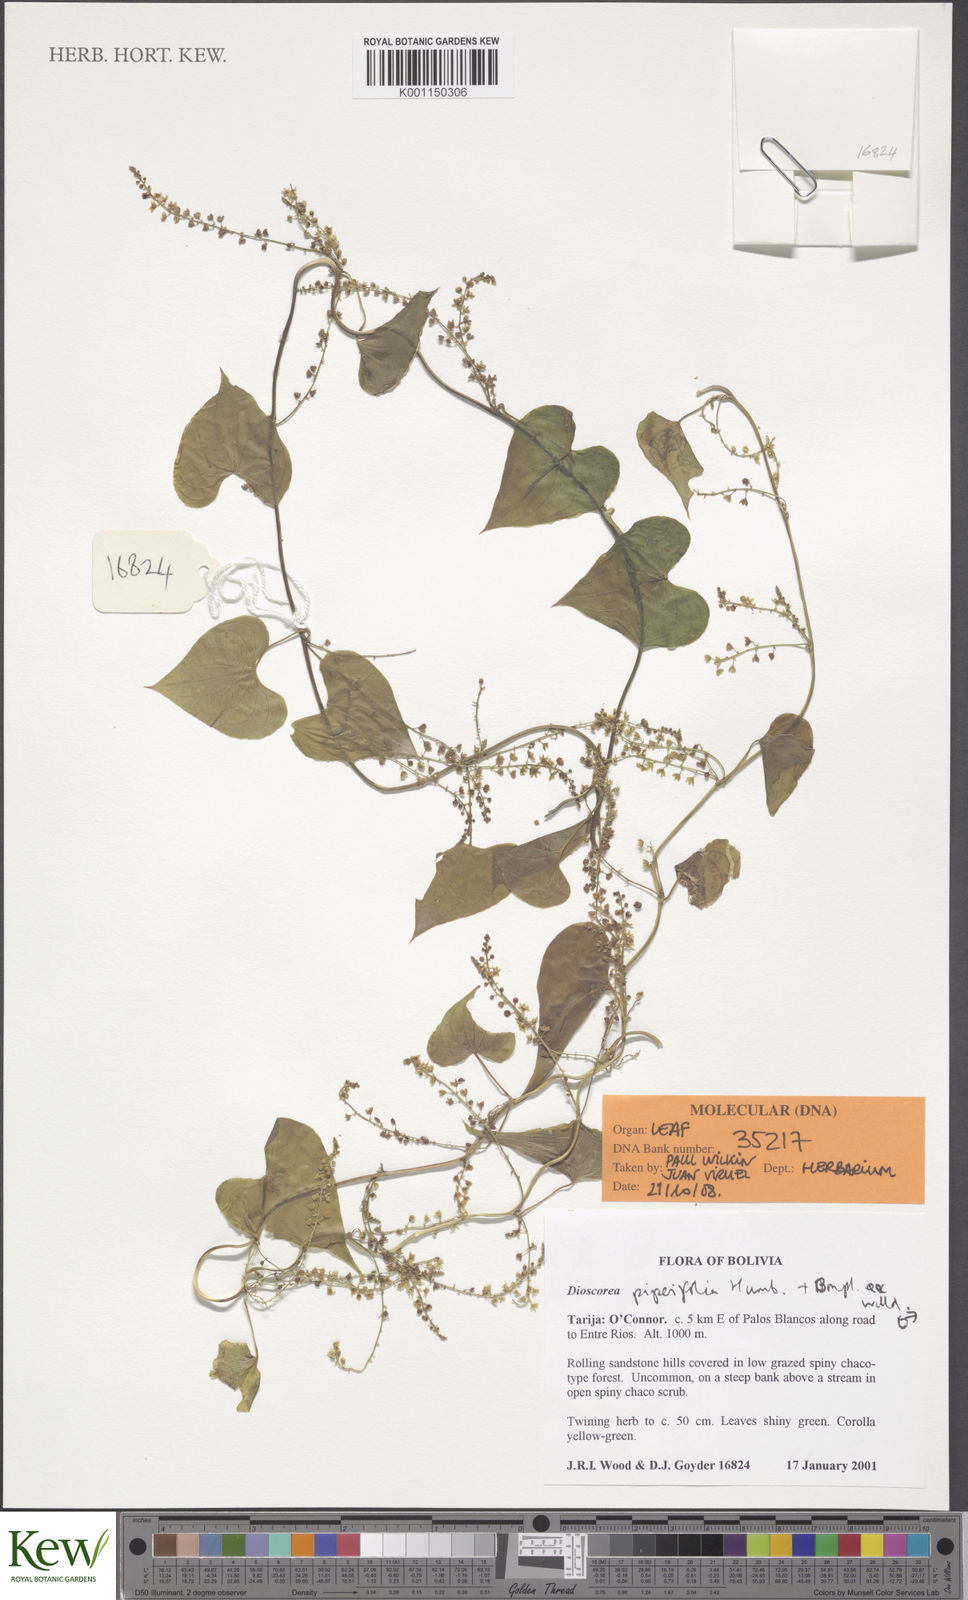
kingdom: Plantae
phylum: Tracheophyta
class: Liliopsida
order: Dioscoreales
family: Dioscoreaceae
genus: Dioscorea
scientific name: Dioscorea piperifolia
